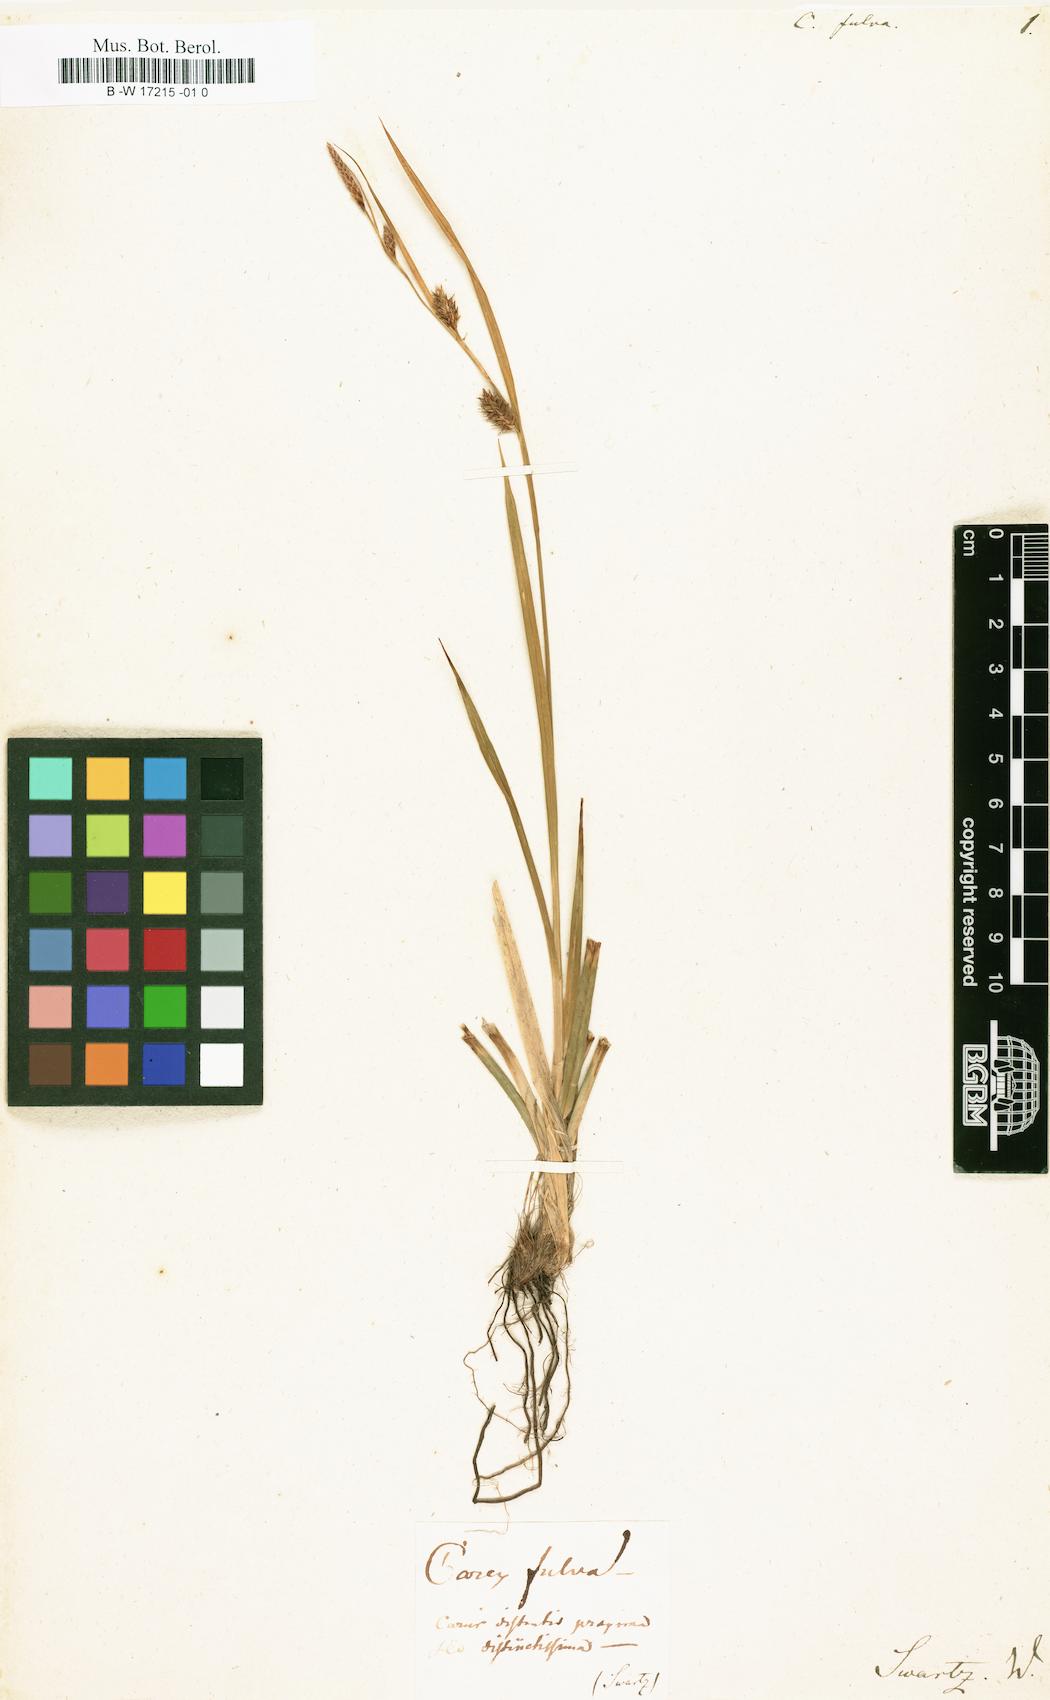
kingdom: Plantae
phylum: Tracheophyta
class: Liliopsida
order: Poales
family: Cyperaceae
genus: Carex
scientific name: Carex fulva
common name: Leutz's sedge
